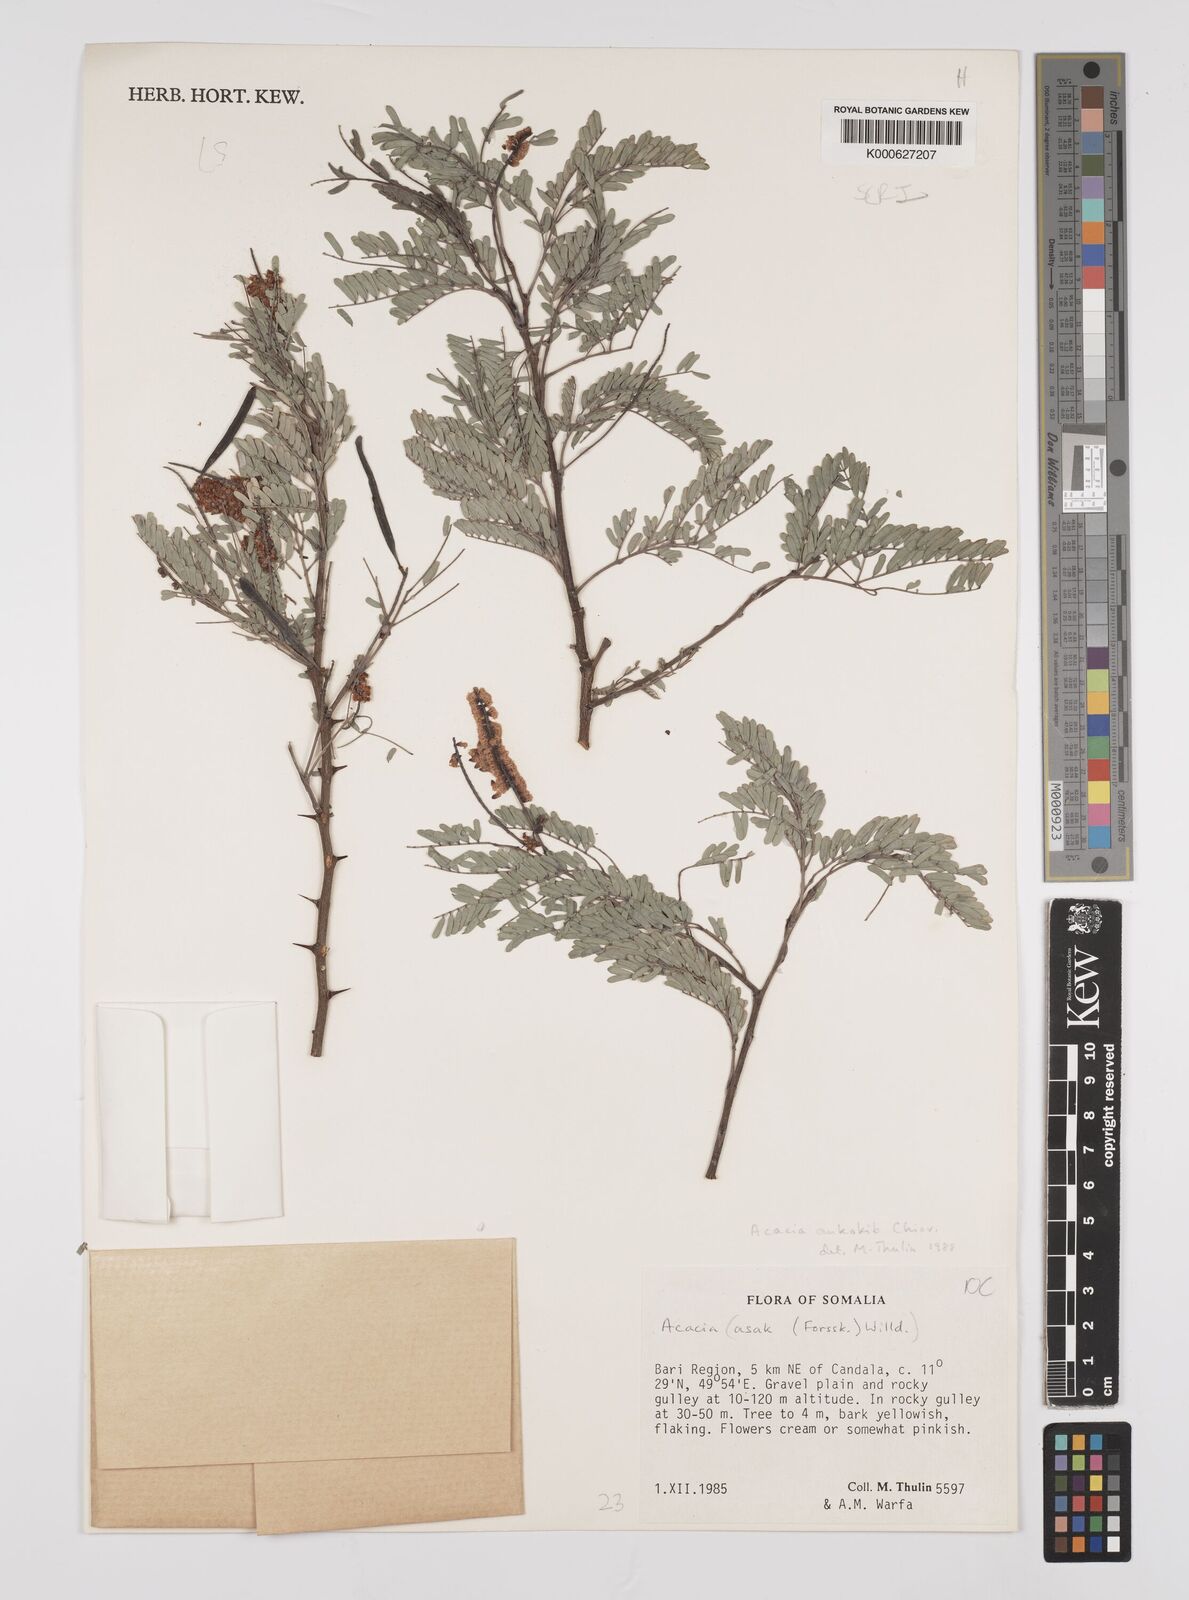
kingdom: Plantae
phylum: Tracheophyta
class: Magnoliopsida
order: Fabales
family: Fabaceae
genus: Senegalia
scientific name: Senegalia ankokib
